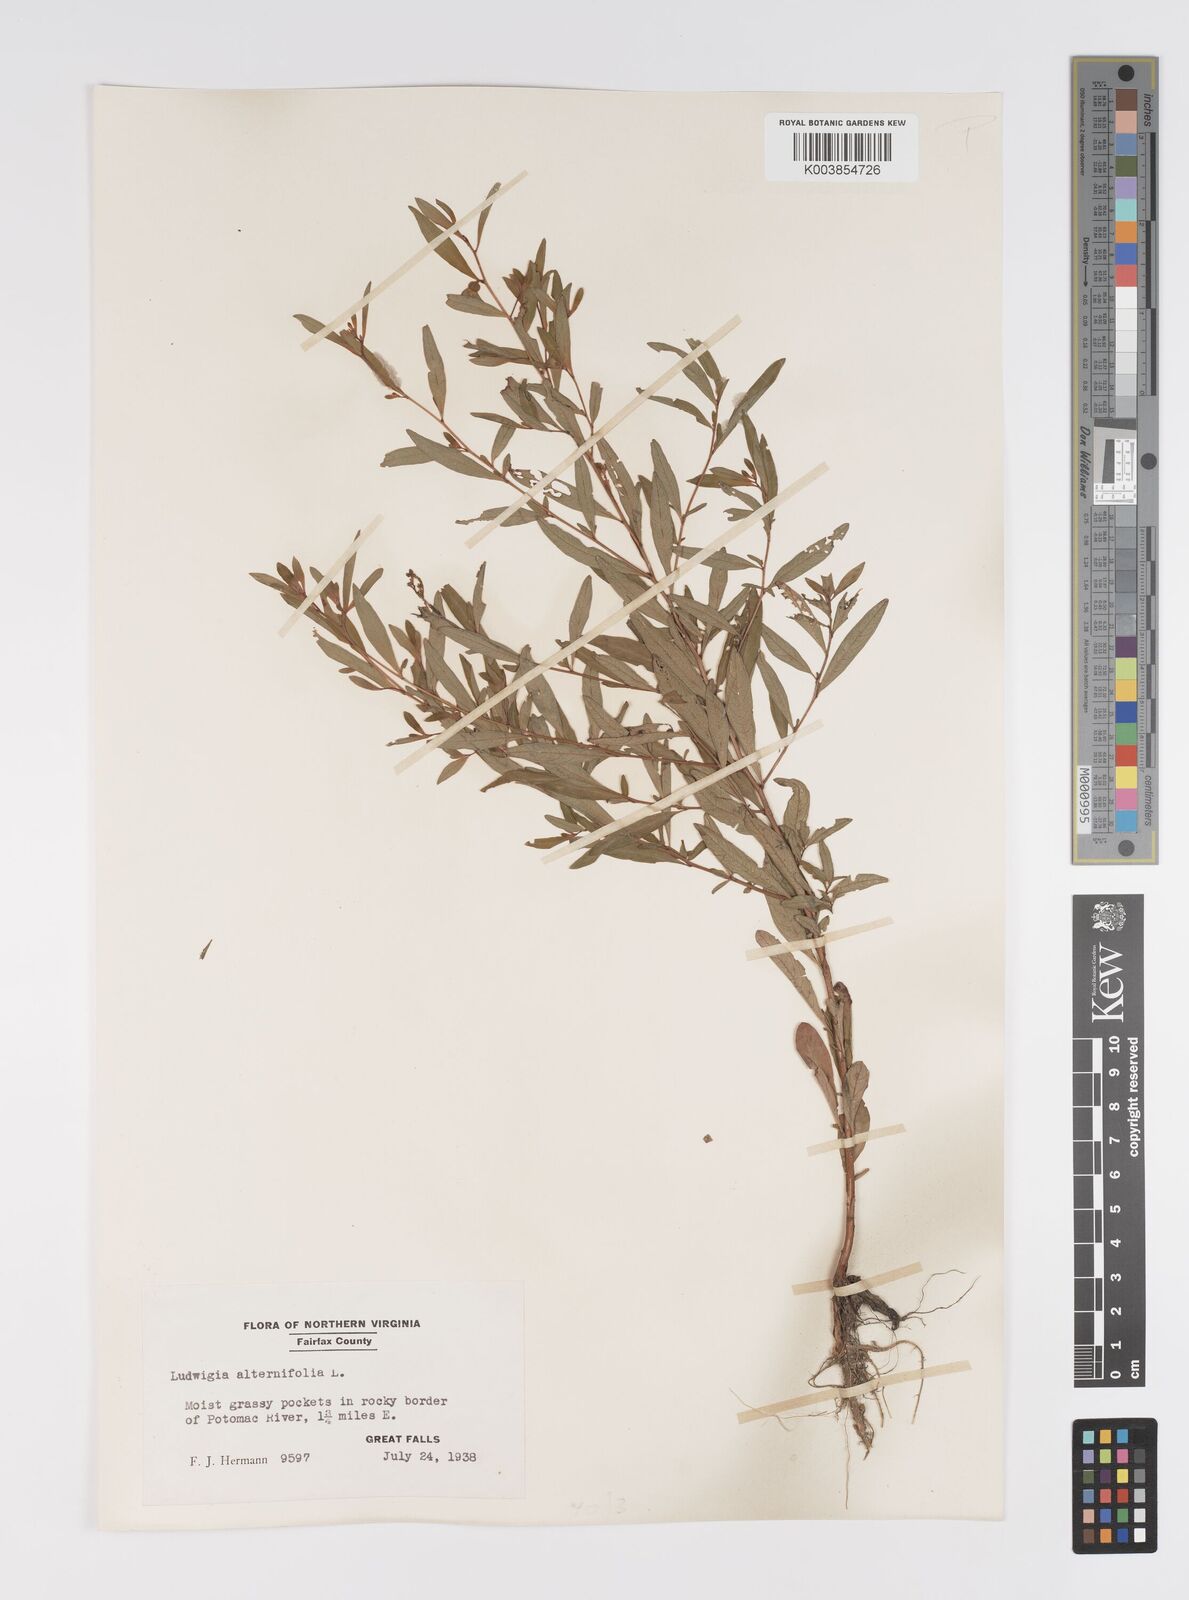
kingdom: Plantae
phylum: Tracheophyta
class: Magnoliopsida
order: Myrtales
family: Onagraceae
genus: Ludwigia
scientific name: Ludwigia alternifolia
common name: Rattlebox
